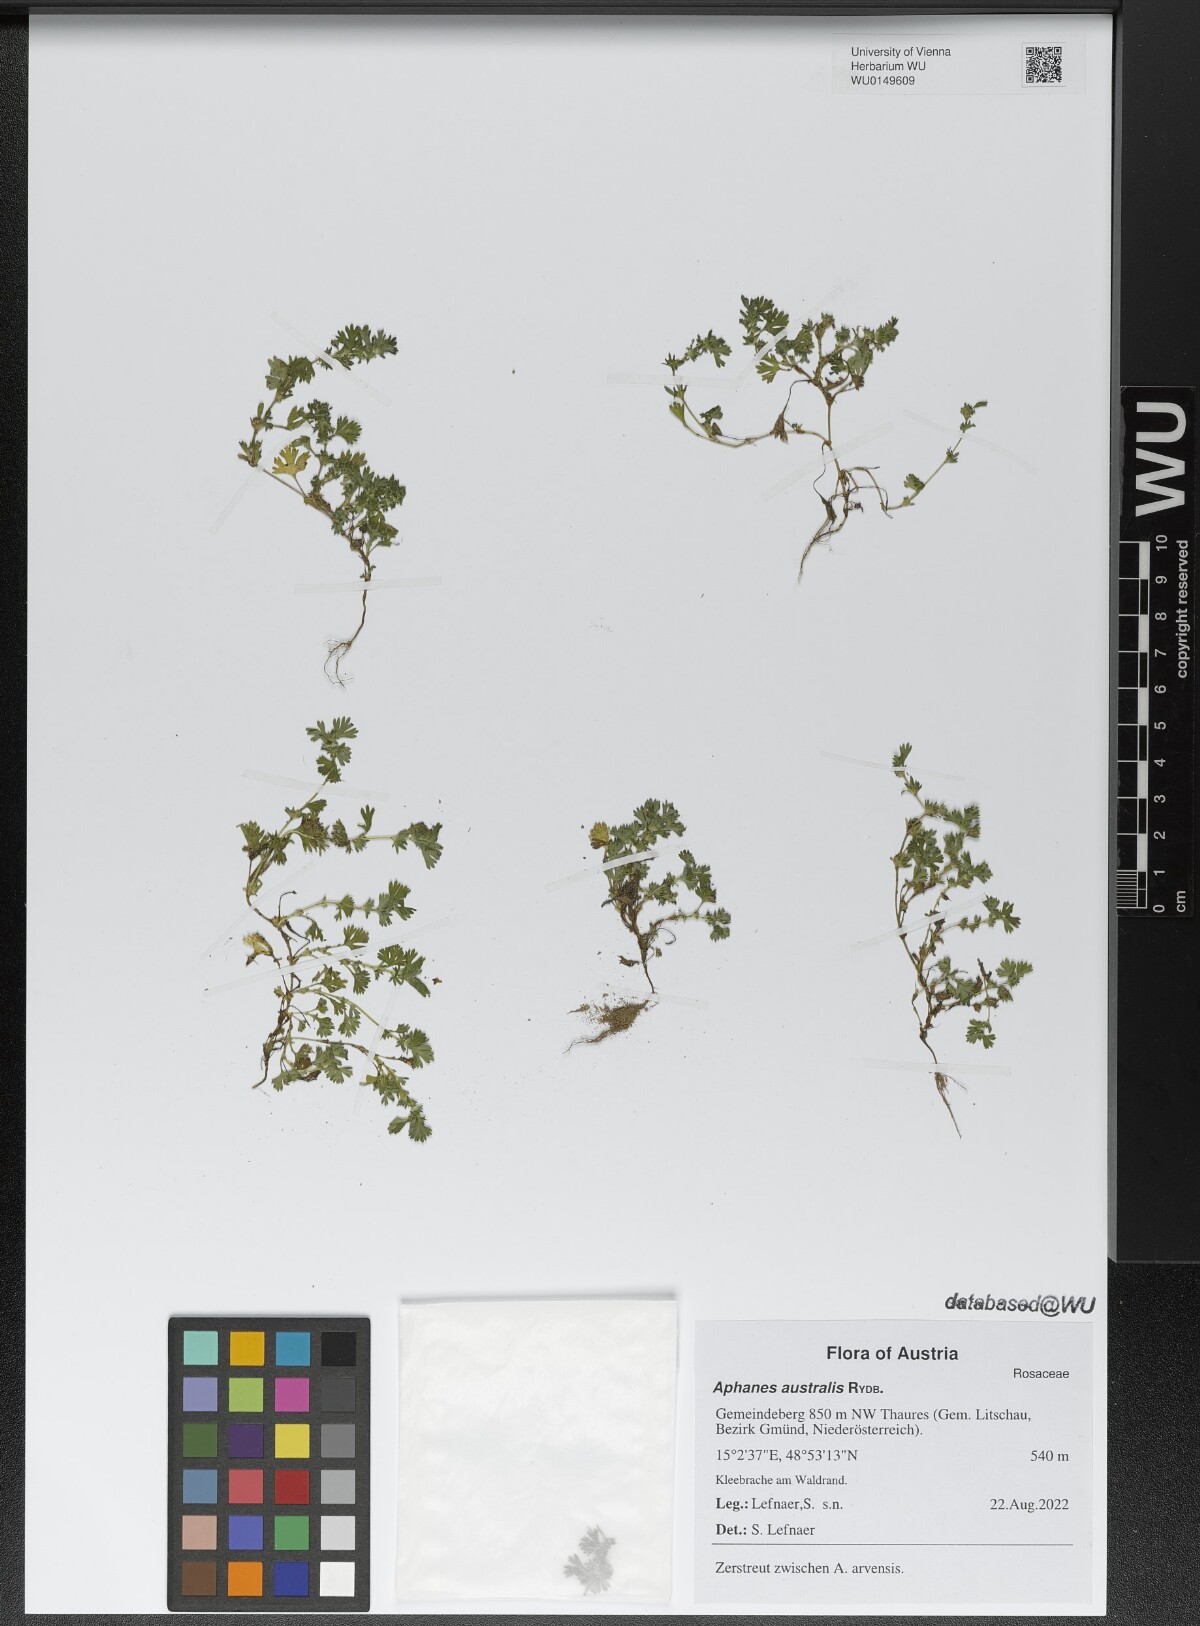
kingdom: Plantae
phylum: Tracheophyta
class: Magnoliopsida
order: Rosales
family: Rosaceae
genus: Aphanes
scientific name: Aphanes australis
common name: Slender parsley-piert
